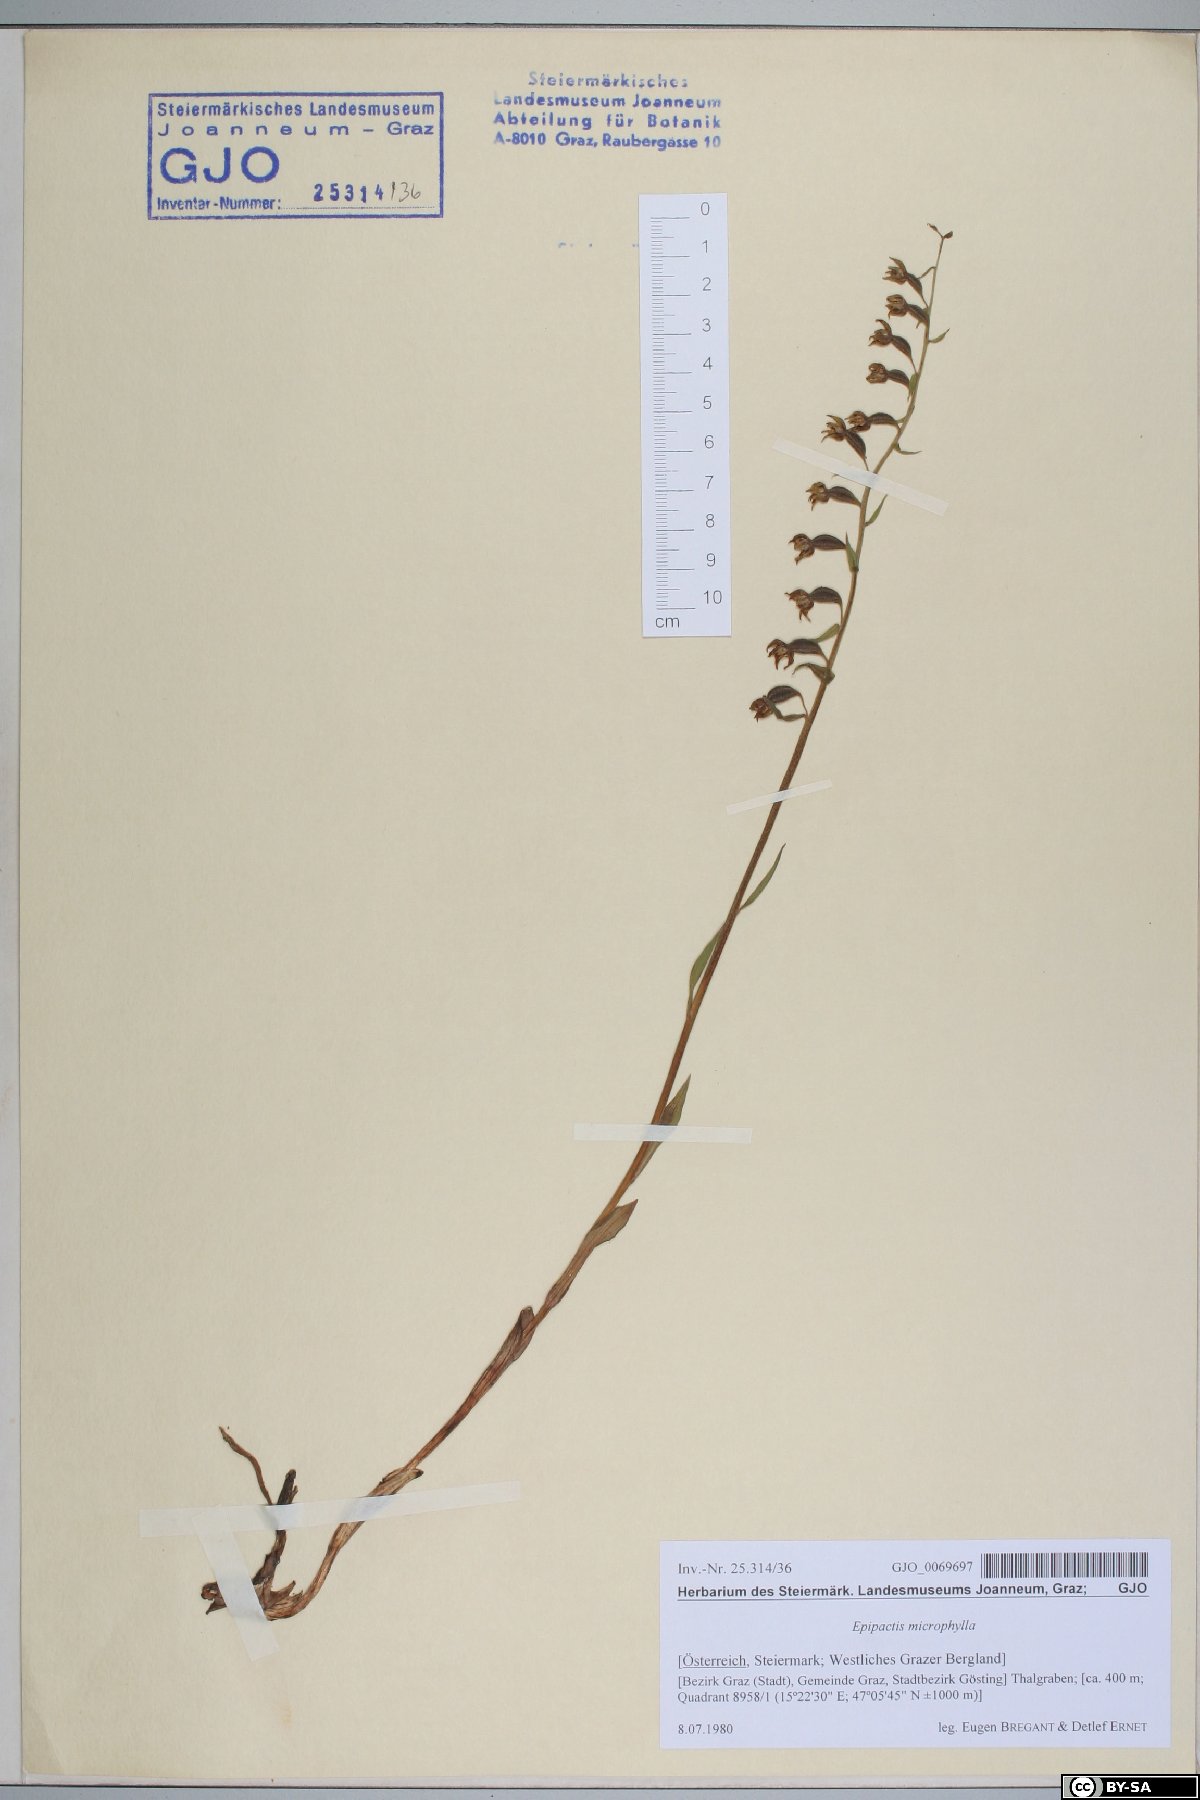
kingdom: Plantae
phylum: Tracheophyta
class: Liliopsida
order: Asparagales
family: Orchidaceae
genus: Epipactis
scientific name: Epipactis microphylla
